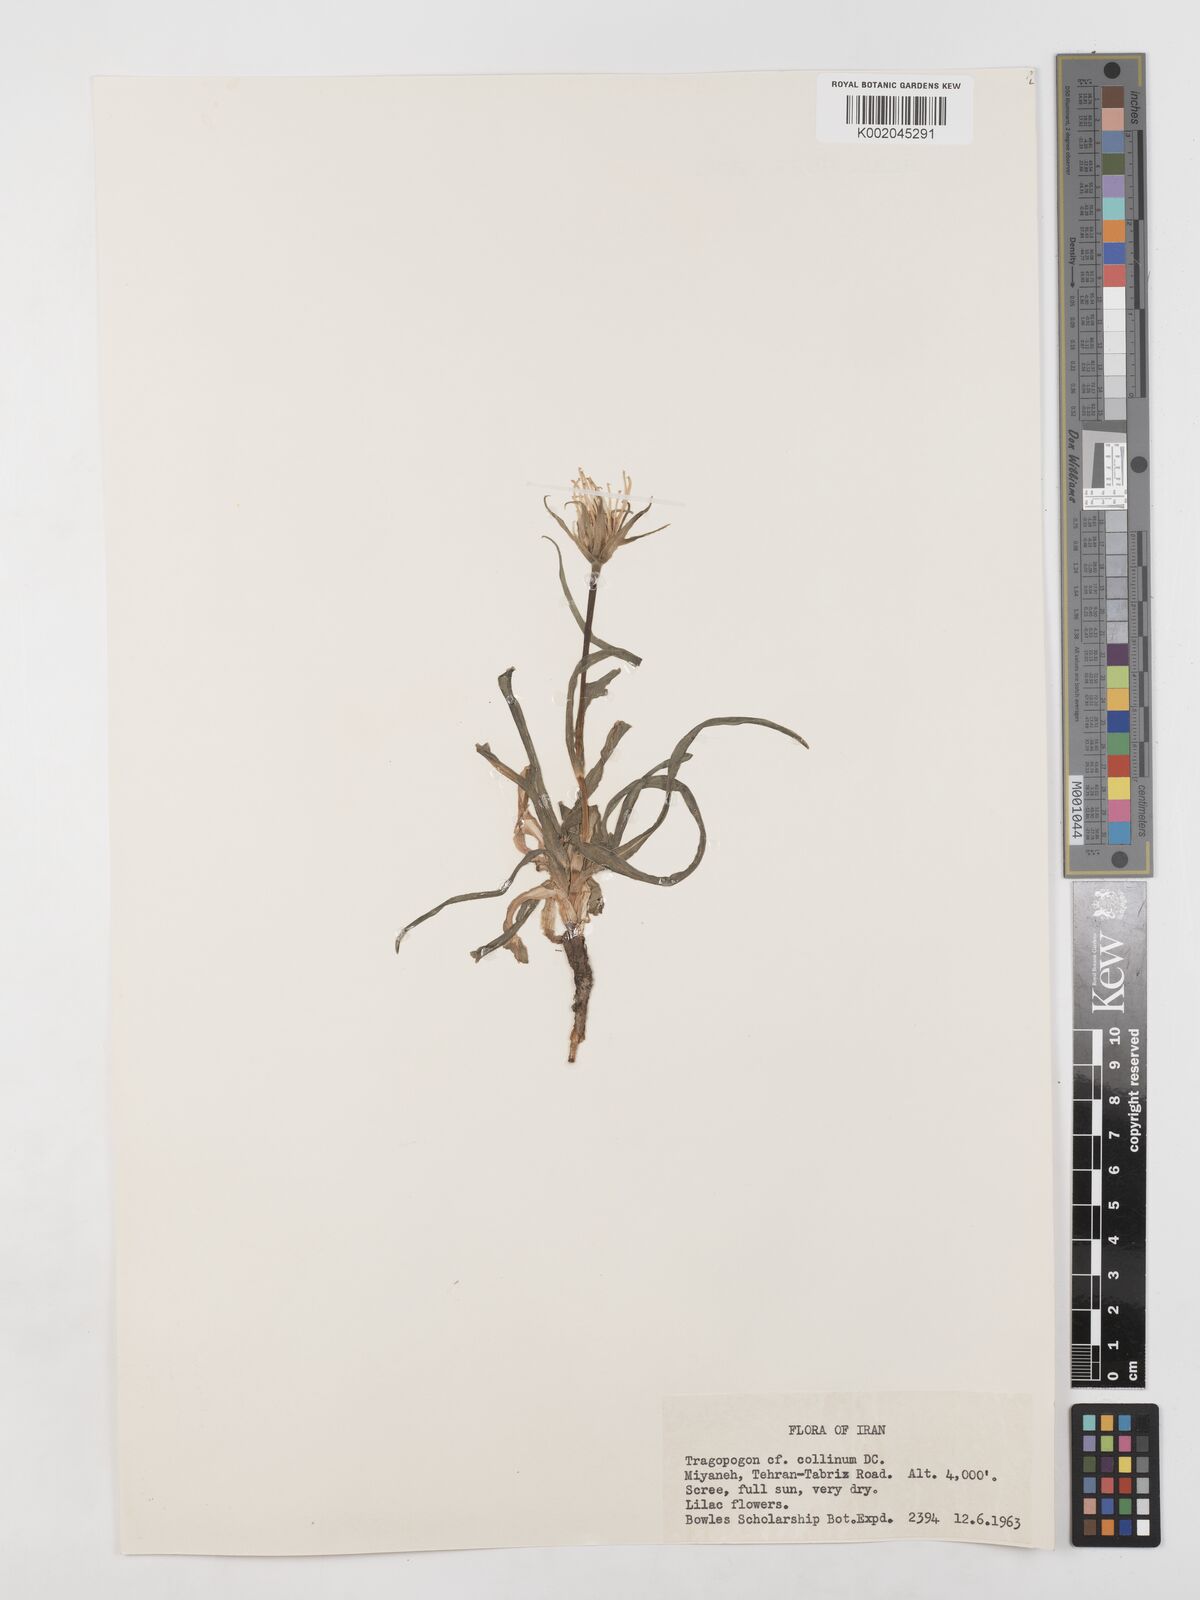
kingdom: Plantae
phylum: Tracheophyta
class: Magnoliopsida
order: Asterales
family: Asteraceae
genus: Tragopogon
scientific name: Tragopogon collinus
